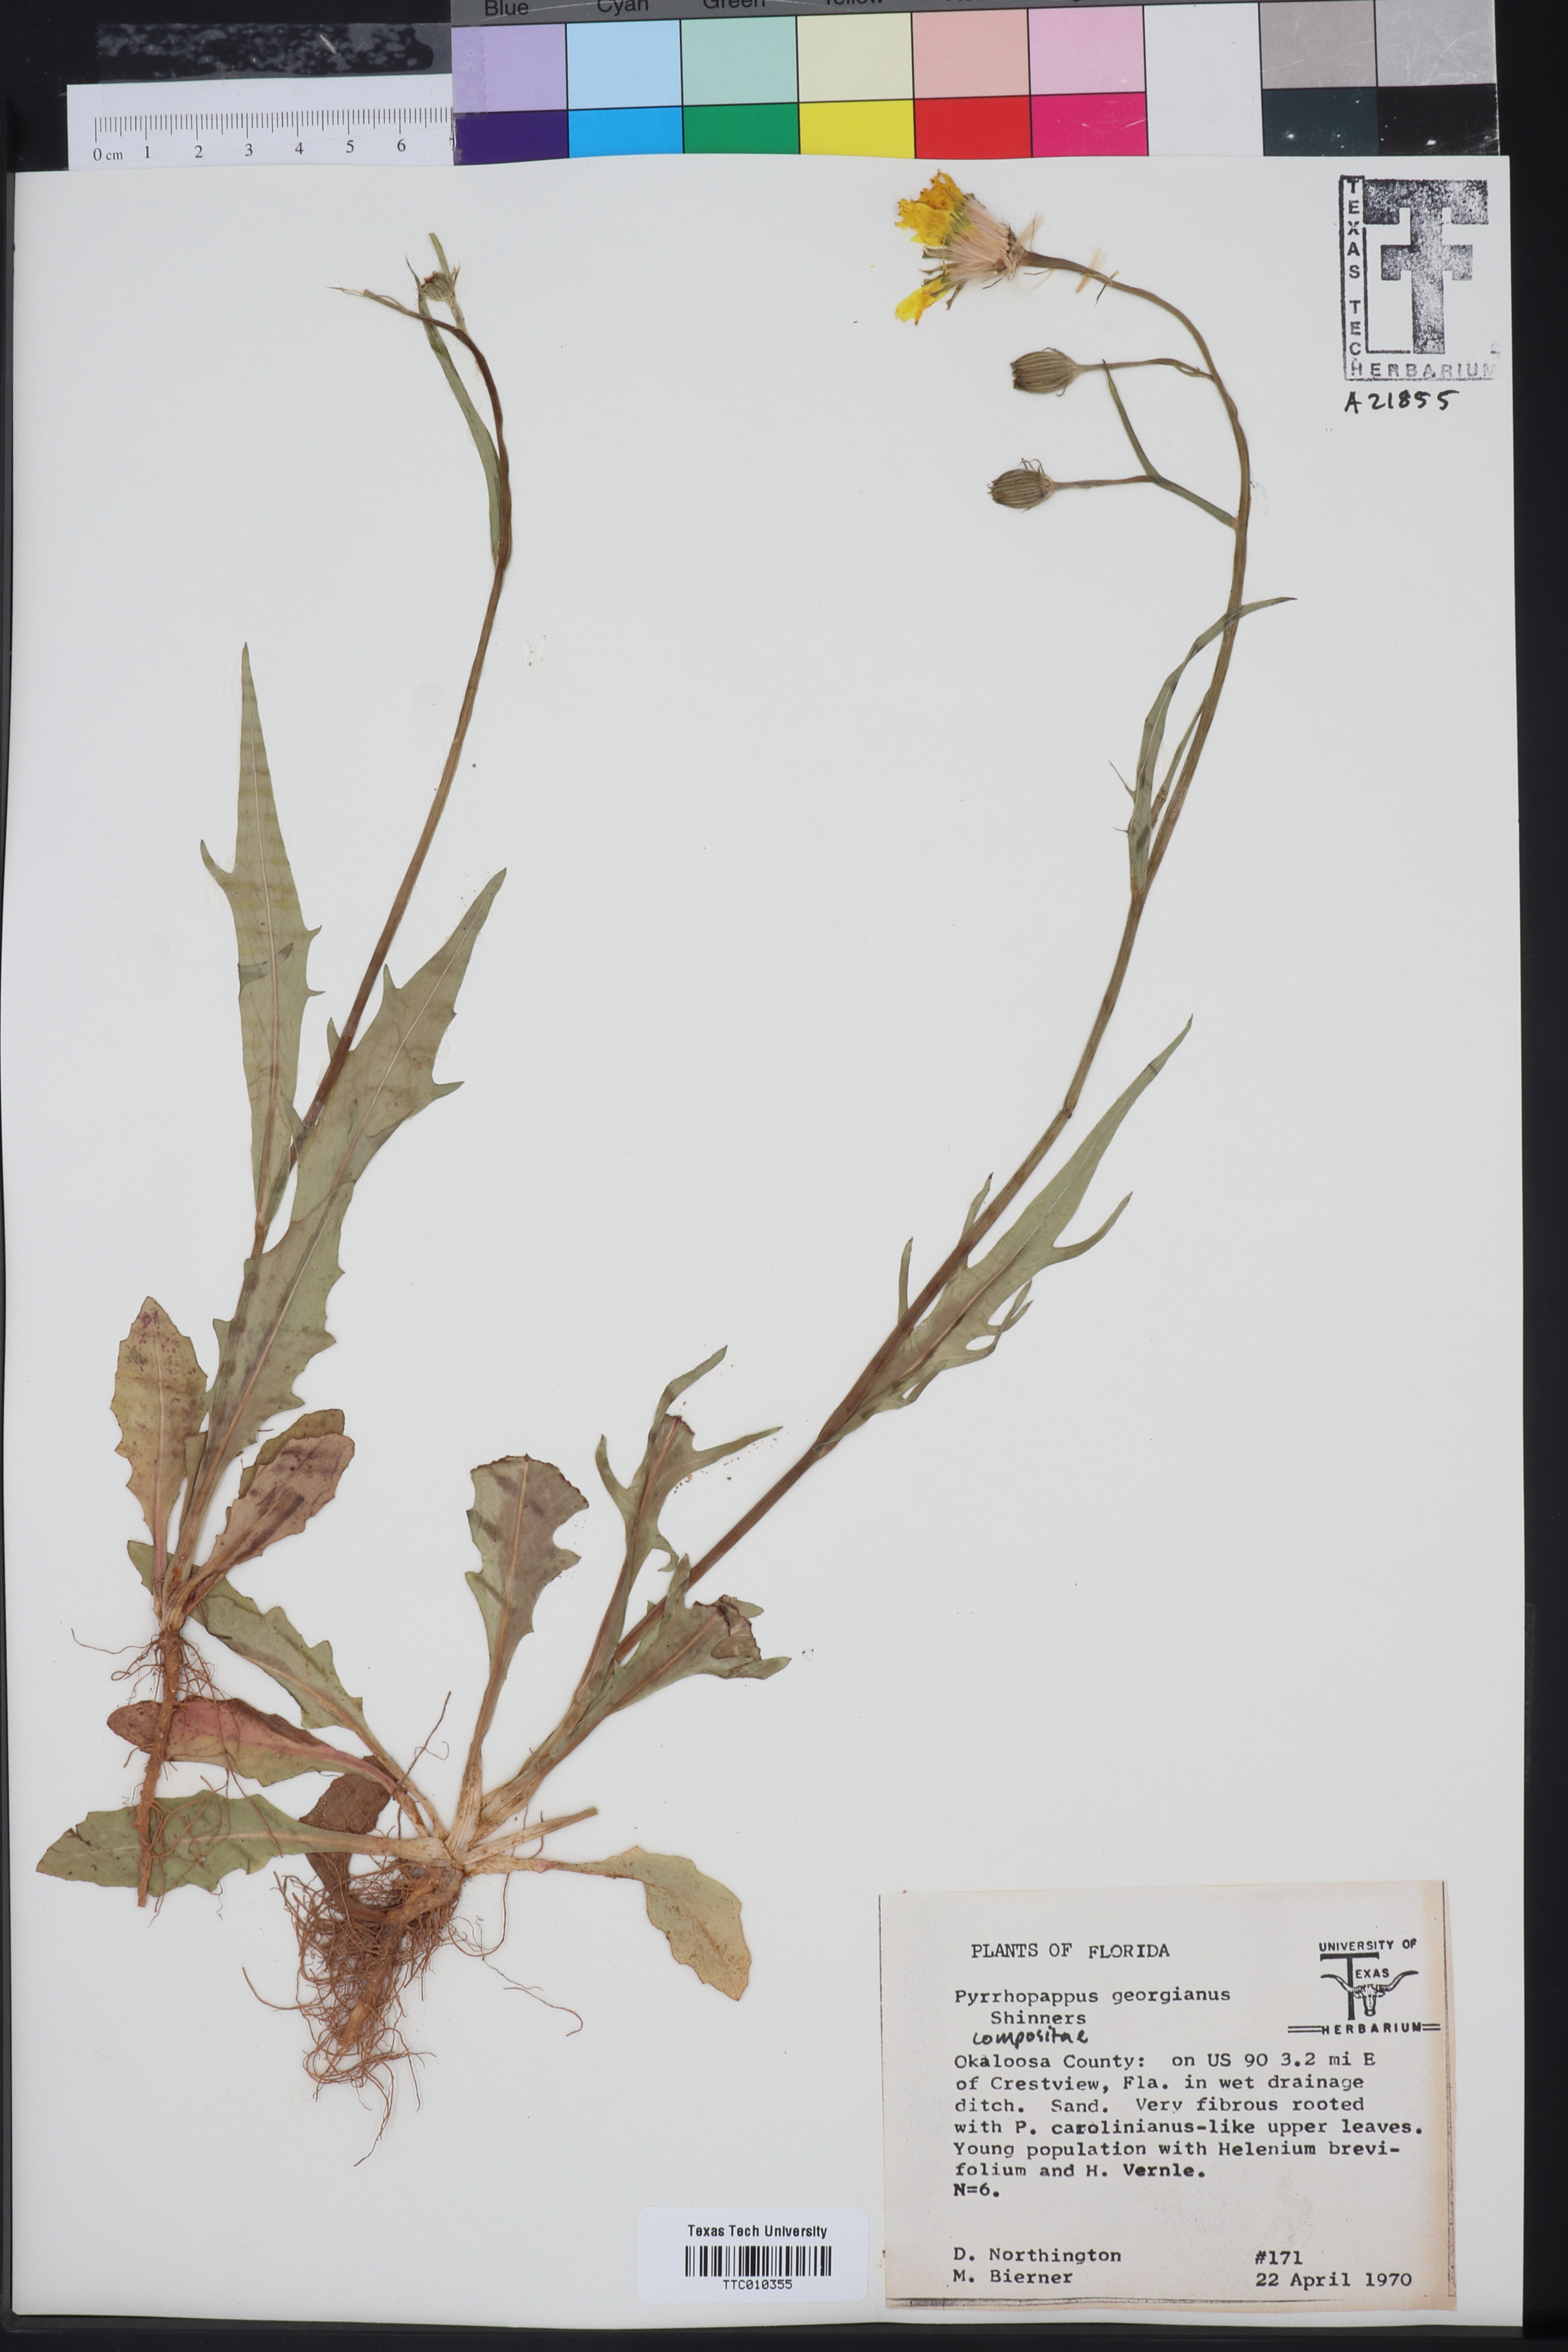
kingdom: Plantae
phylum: Tracheophyta
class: Magnoliopsida
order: Asterales
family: Asteraceae
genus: Pyrrhopappus
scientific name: Pyrrhopappus carolinianus
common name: Carolina desert-chicory
